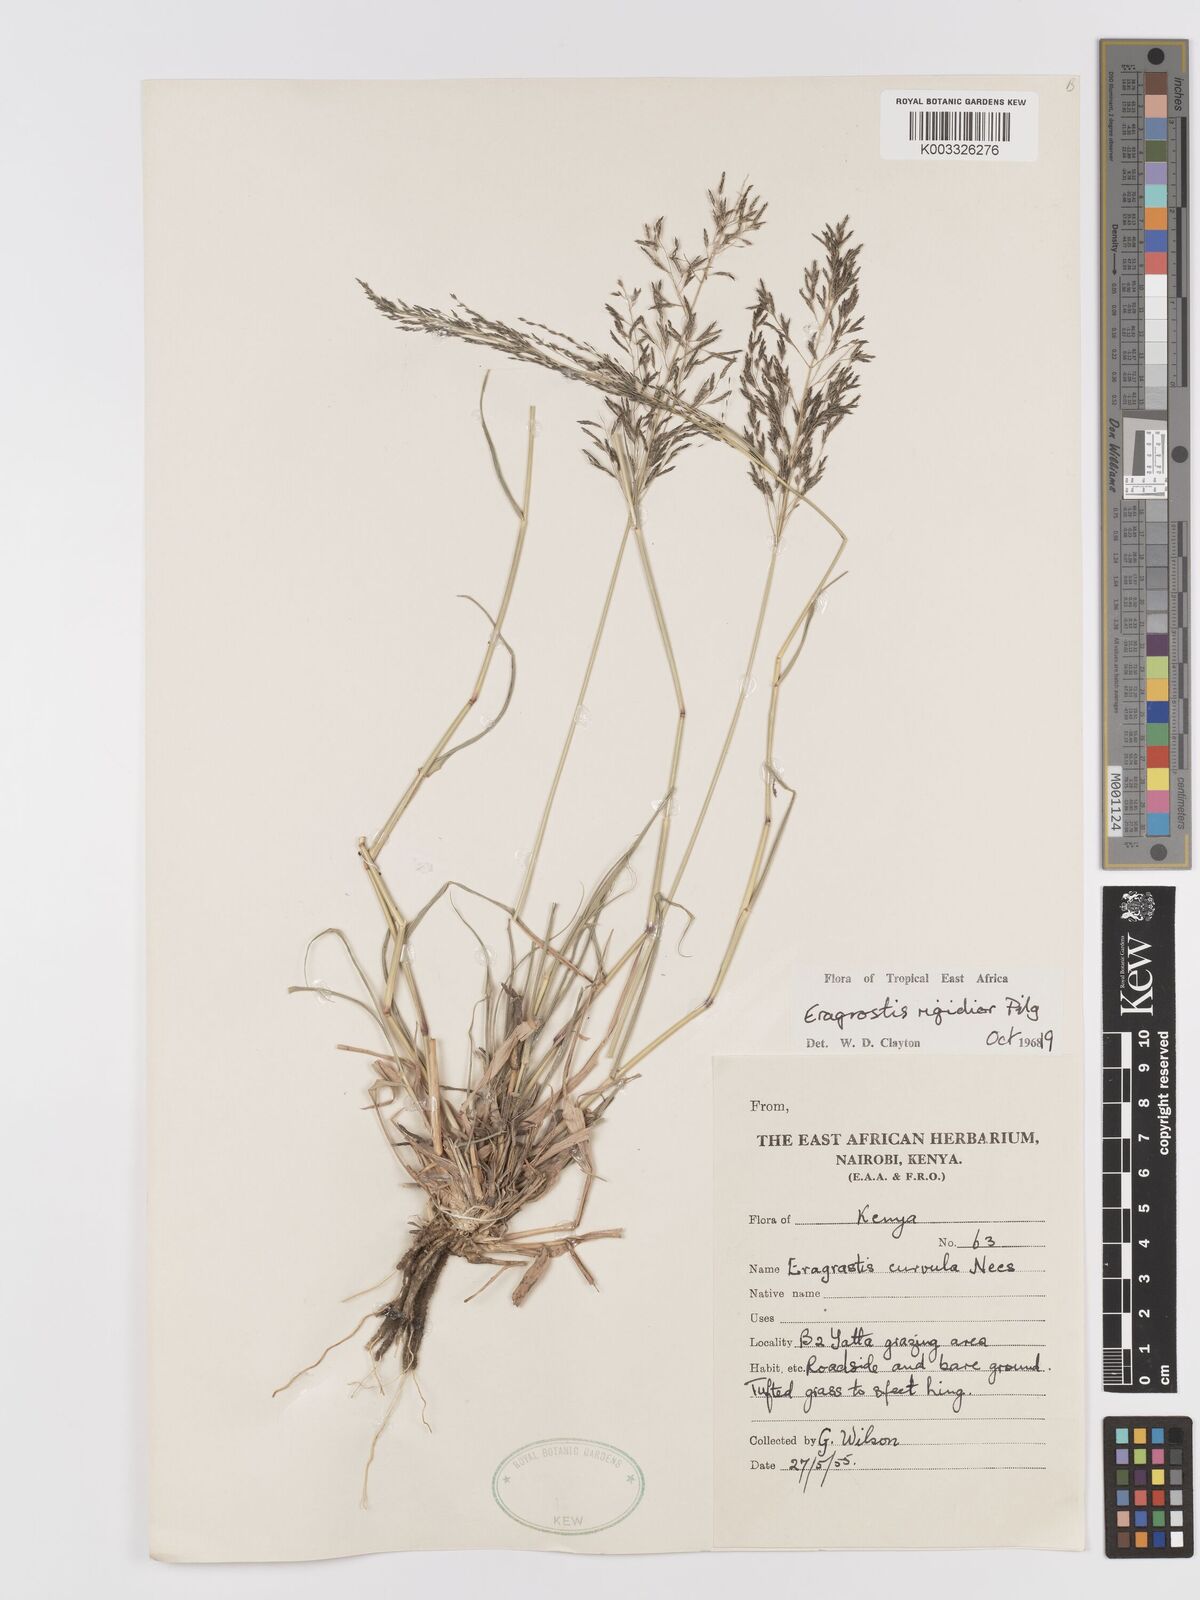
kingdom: Plantae
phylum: Tracheophyta
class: Liliopsida
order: Poales
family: Poaceae
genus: Eragrostis
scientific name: Eragrostis cylindriflora
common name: Cylinderflower lovegrass
